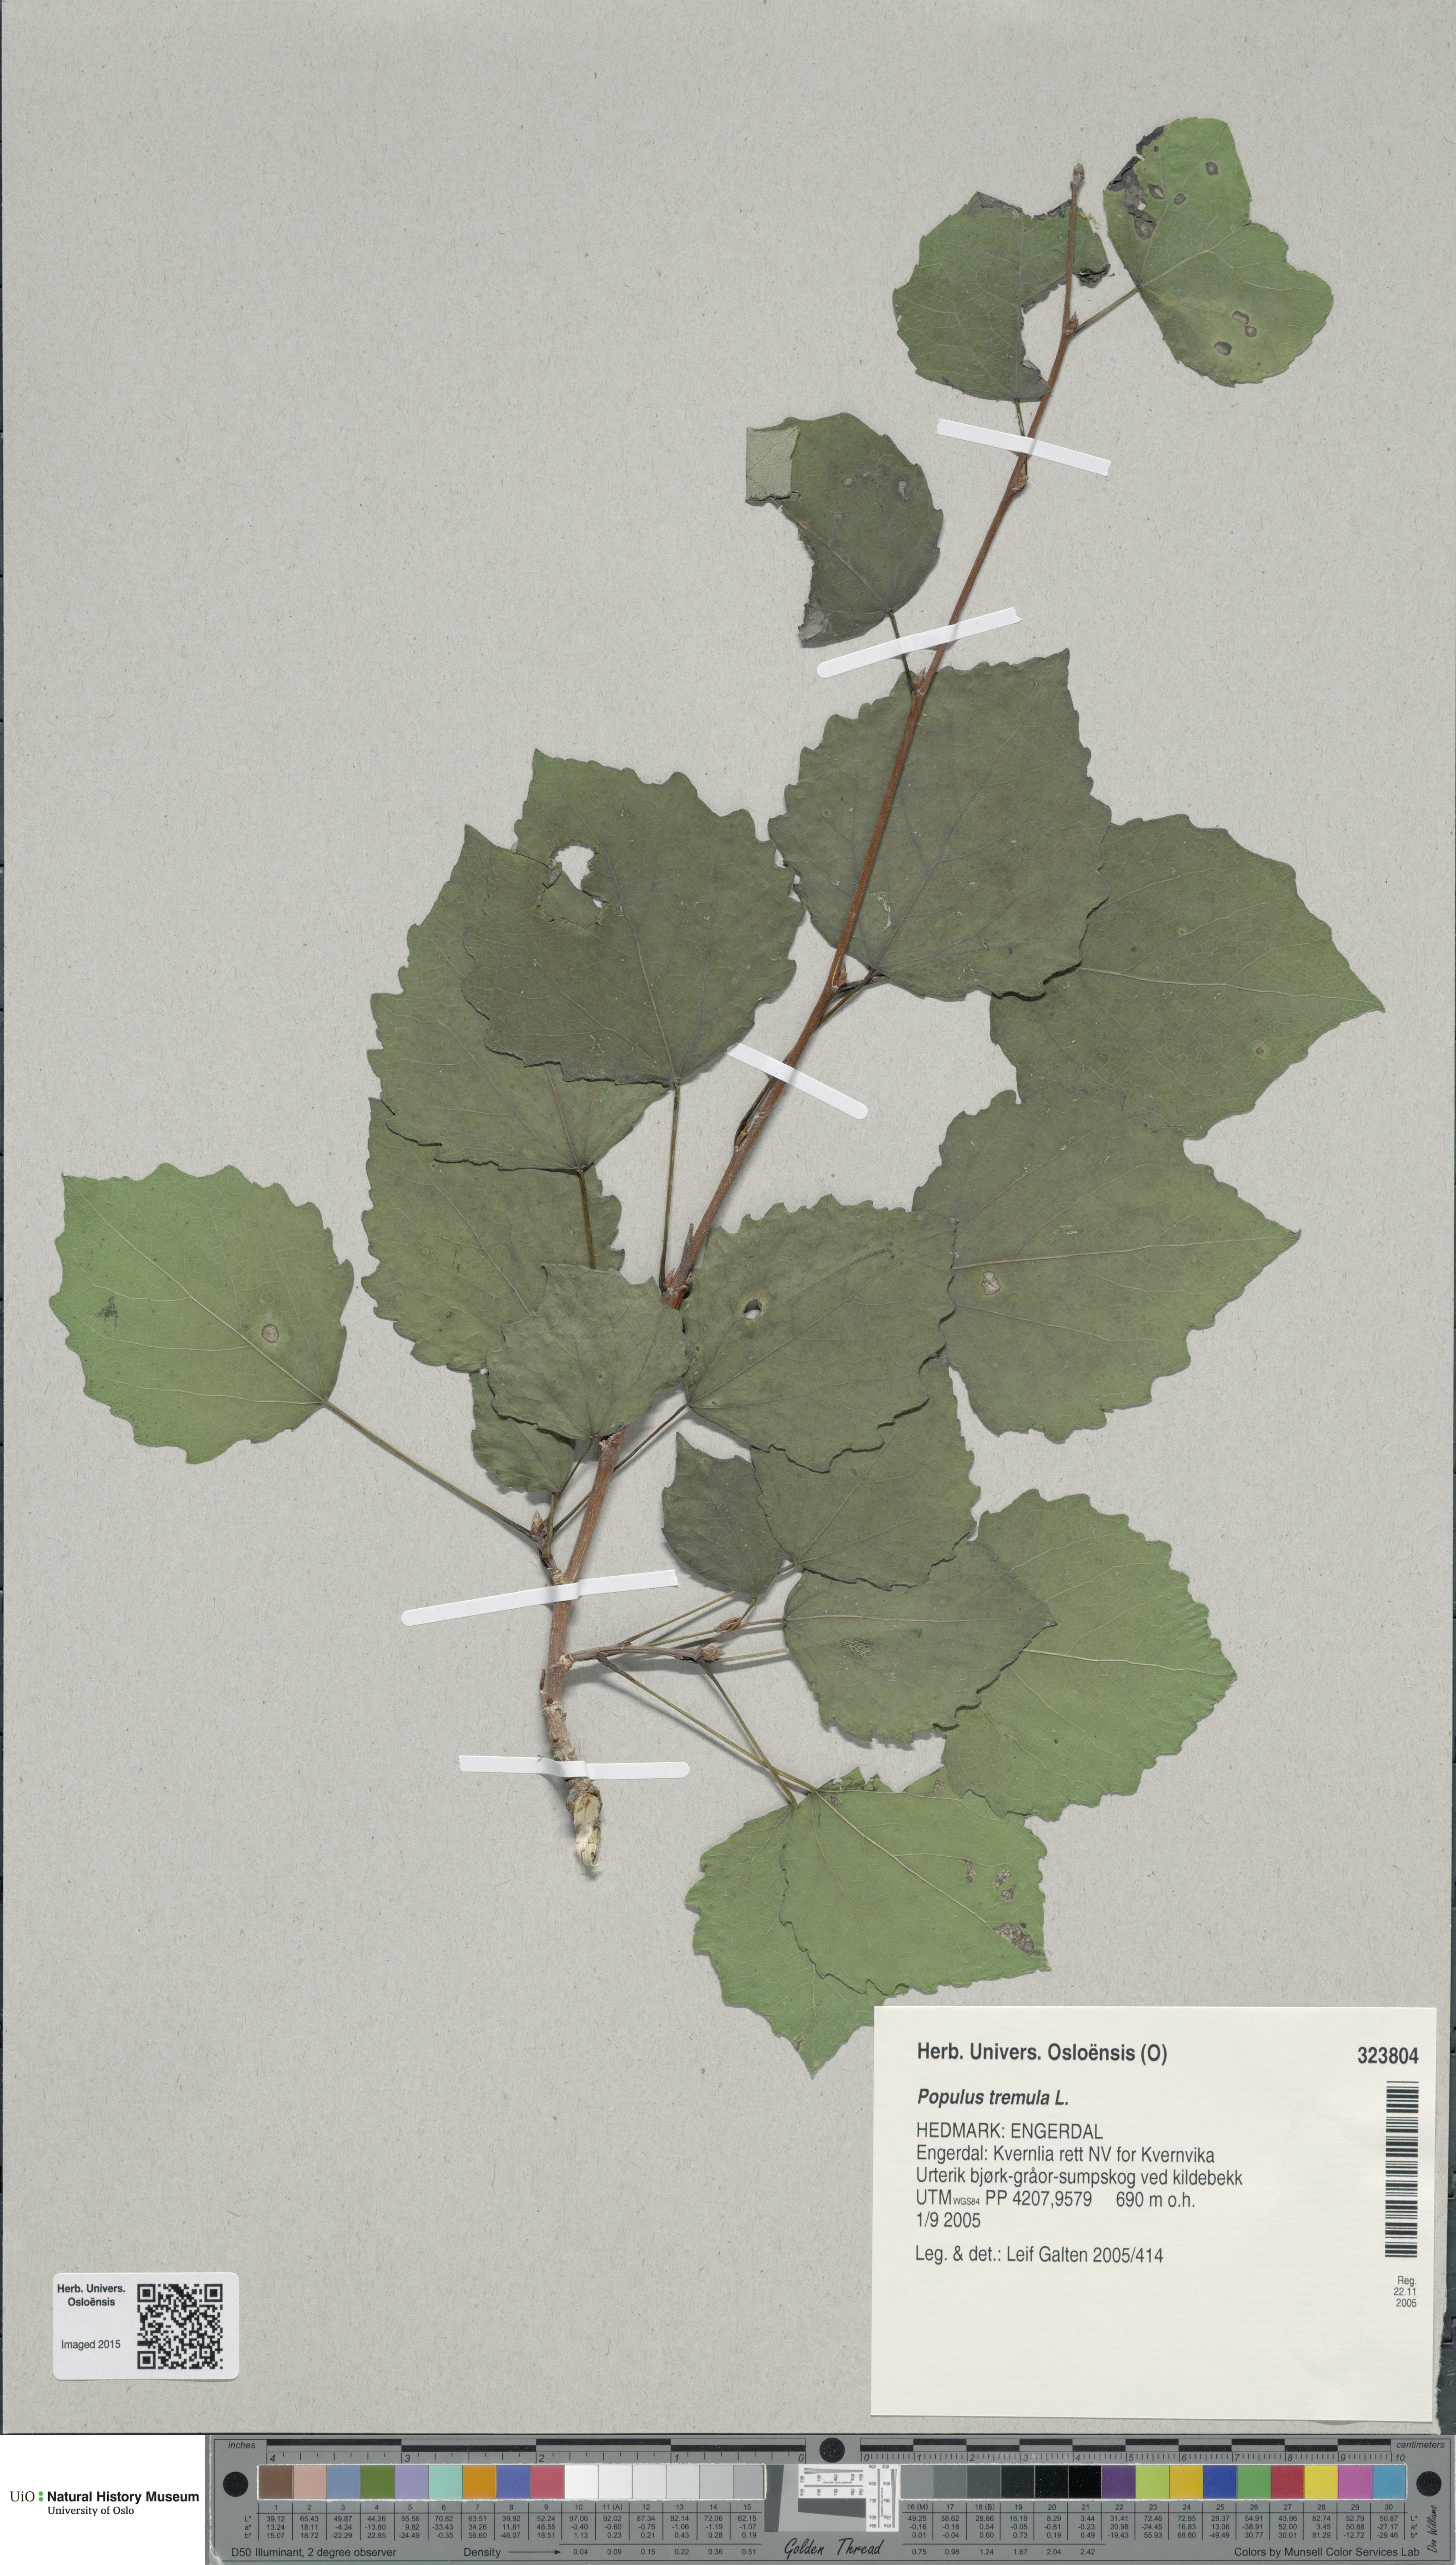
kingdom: Plantae
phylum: Tracheophyta
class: Magnoliopsida
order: Malpighiales
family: Salicaceae
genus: Populus
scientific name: Populus tremula
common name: European aspen
